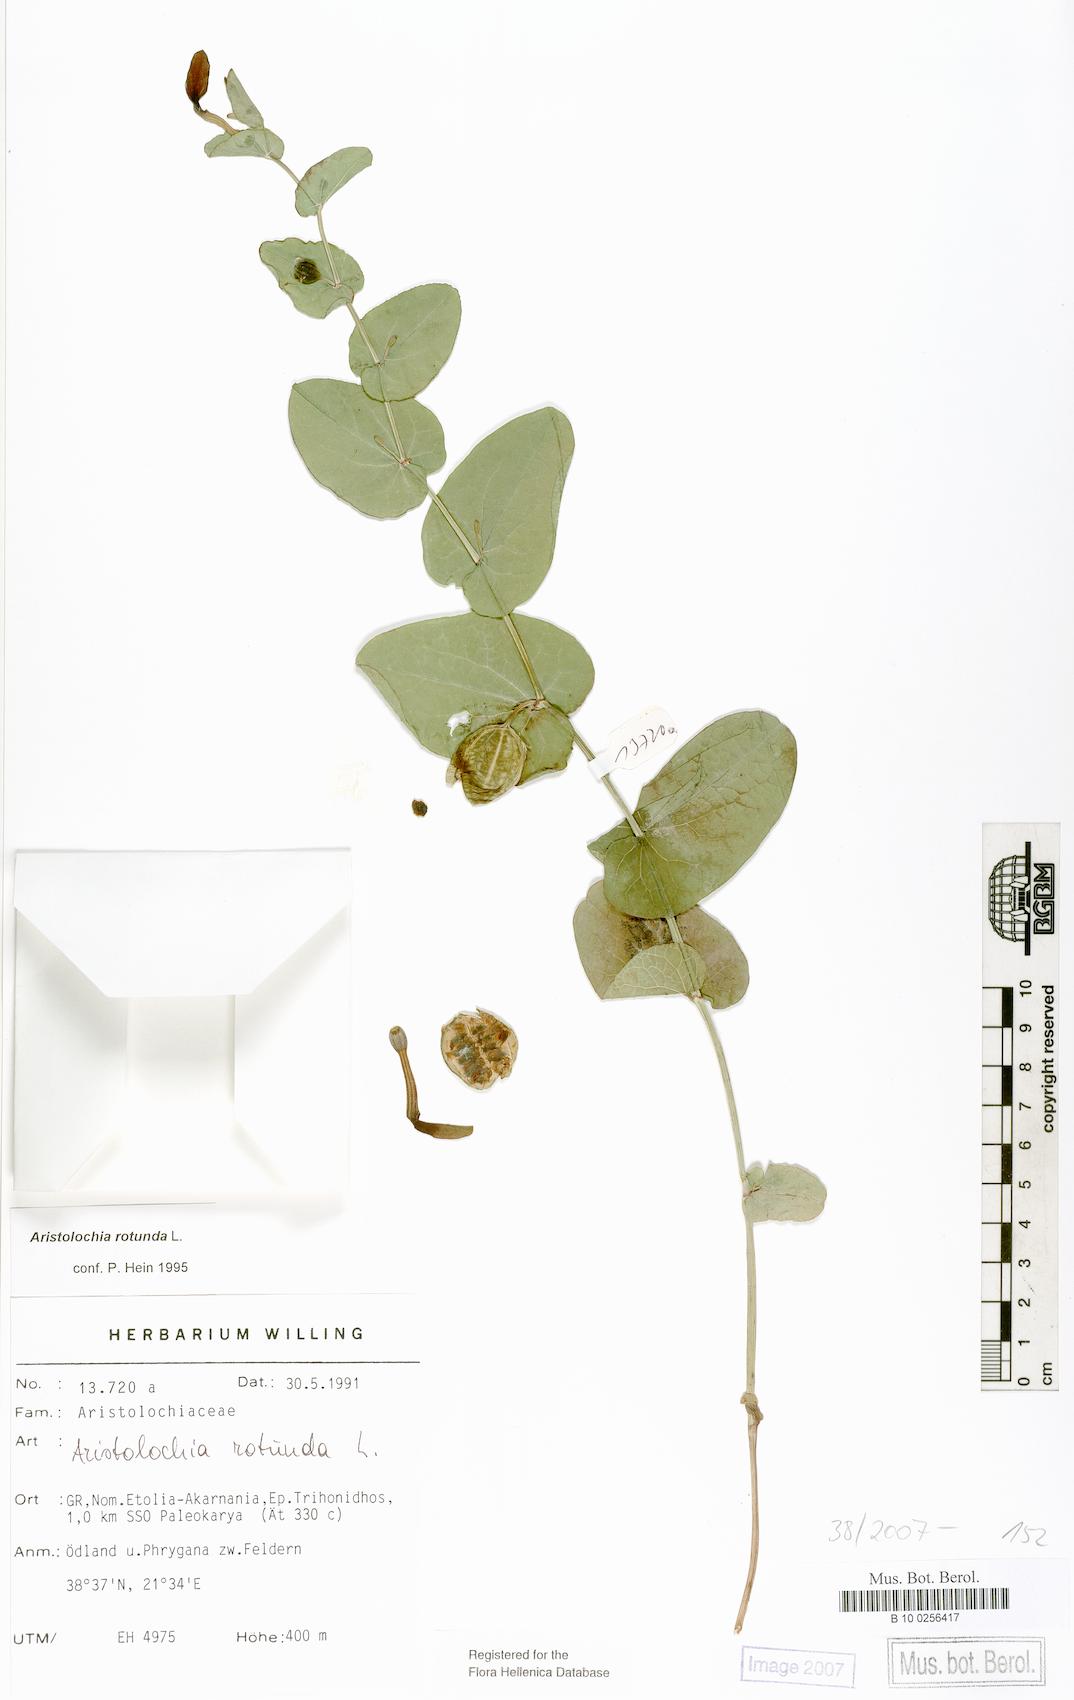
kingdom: Plantae
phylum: Tracheophyta
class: Magnoliopsida
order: Piperales
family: Aristolochiaceae
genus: Aristolochia
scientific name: Aristolochia rotunda
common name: Smearwort
